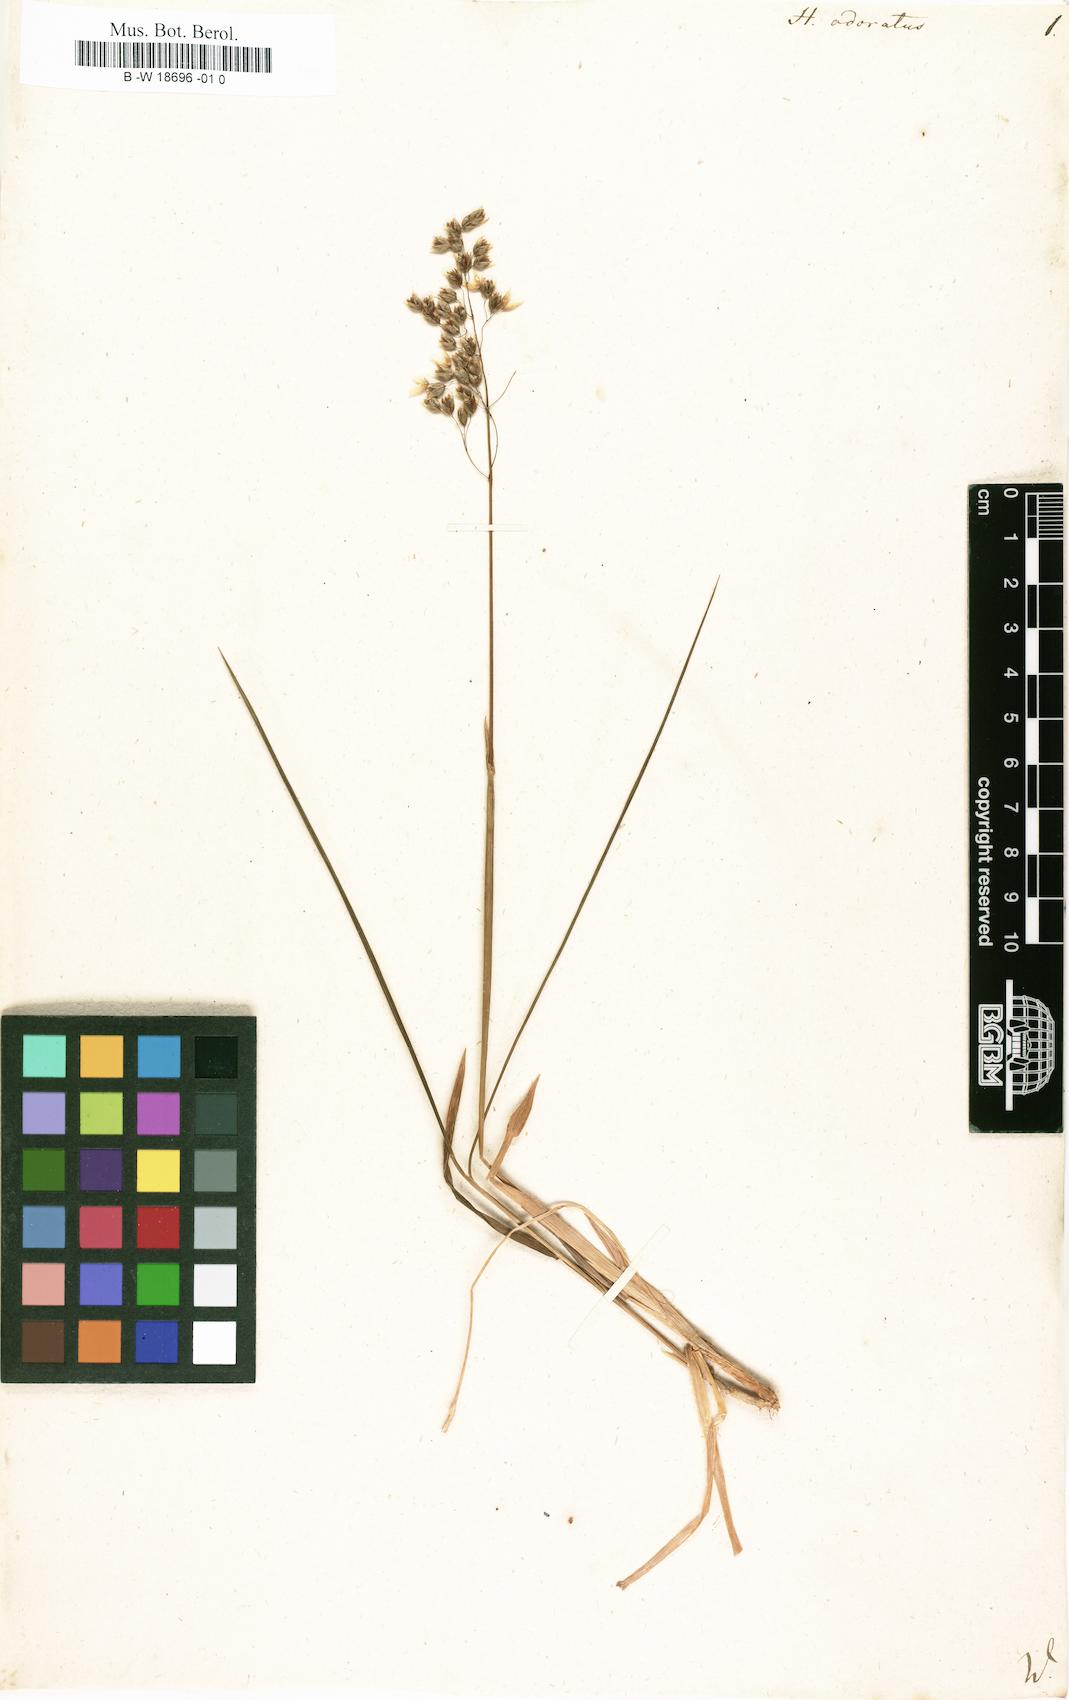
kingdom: Plantae
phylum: Tracheophyta
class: Liliopsida
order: Poales
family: Poaceae
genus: Anthoxanthum
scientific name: Anthoxanthum nitens
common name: Holy grass
